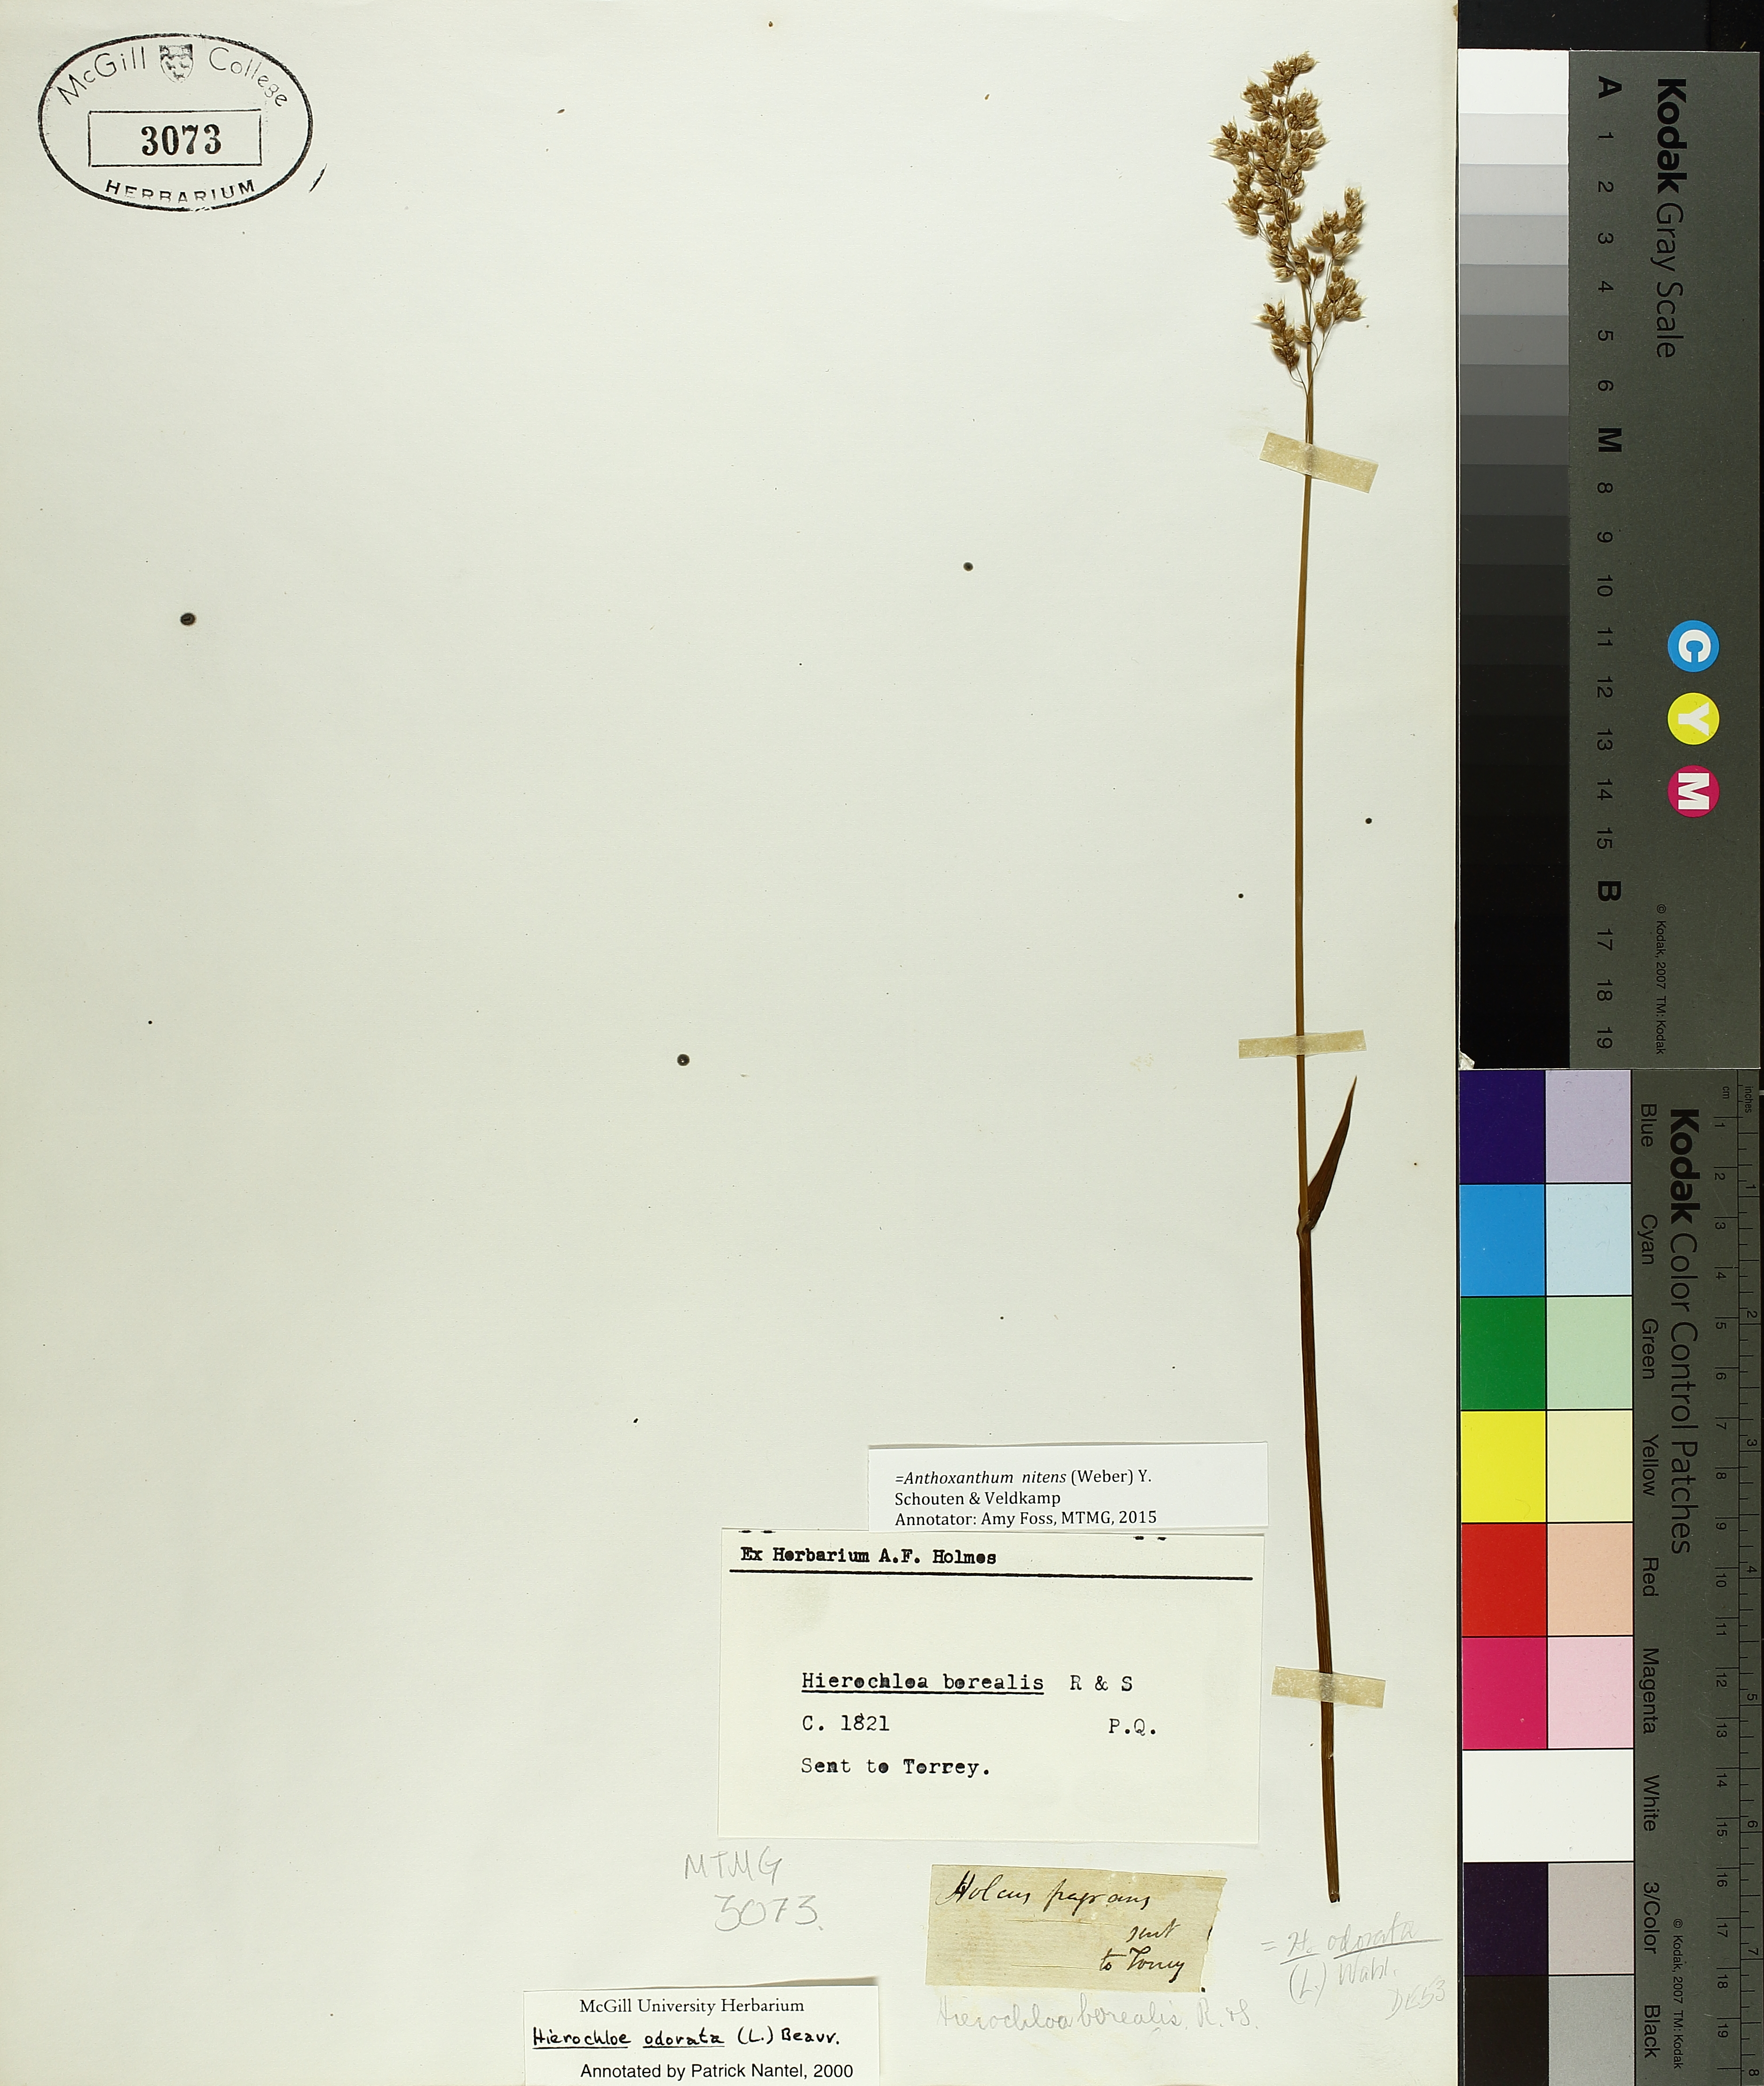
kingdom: Plantae
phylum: Tracheophyta
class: Liliopsida
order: Poales
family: Poaceae
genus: Anthoxanthum
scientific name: Anthoxanthum nitens
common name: Holy grass
